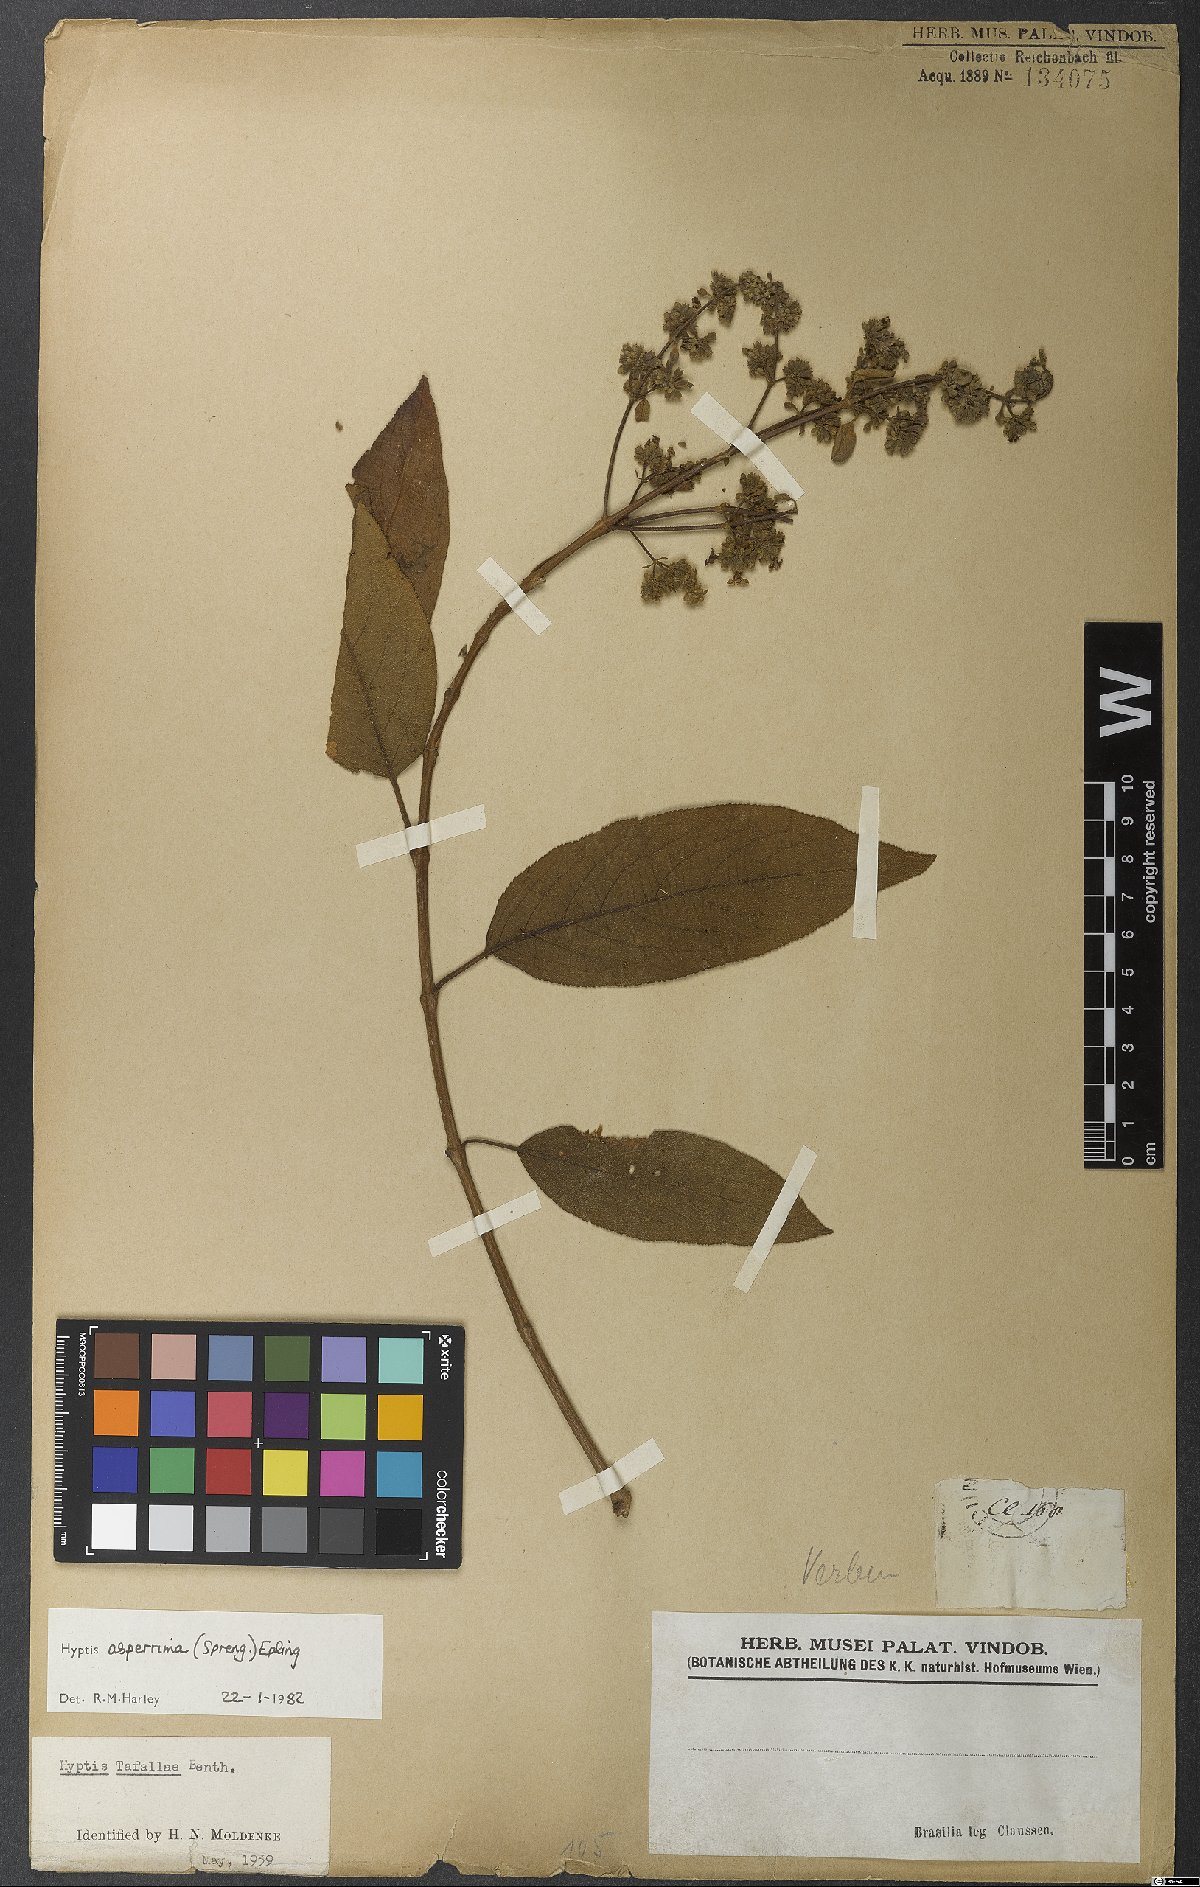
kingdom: Plantae
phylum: Tracheophyta
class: Magnoliopsida
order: Lamiales
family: Lamiaceae
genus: Hyptidendron
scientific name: Hyptidendron asperrimum
